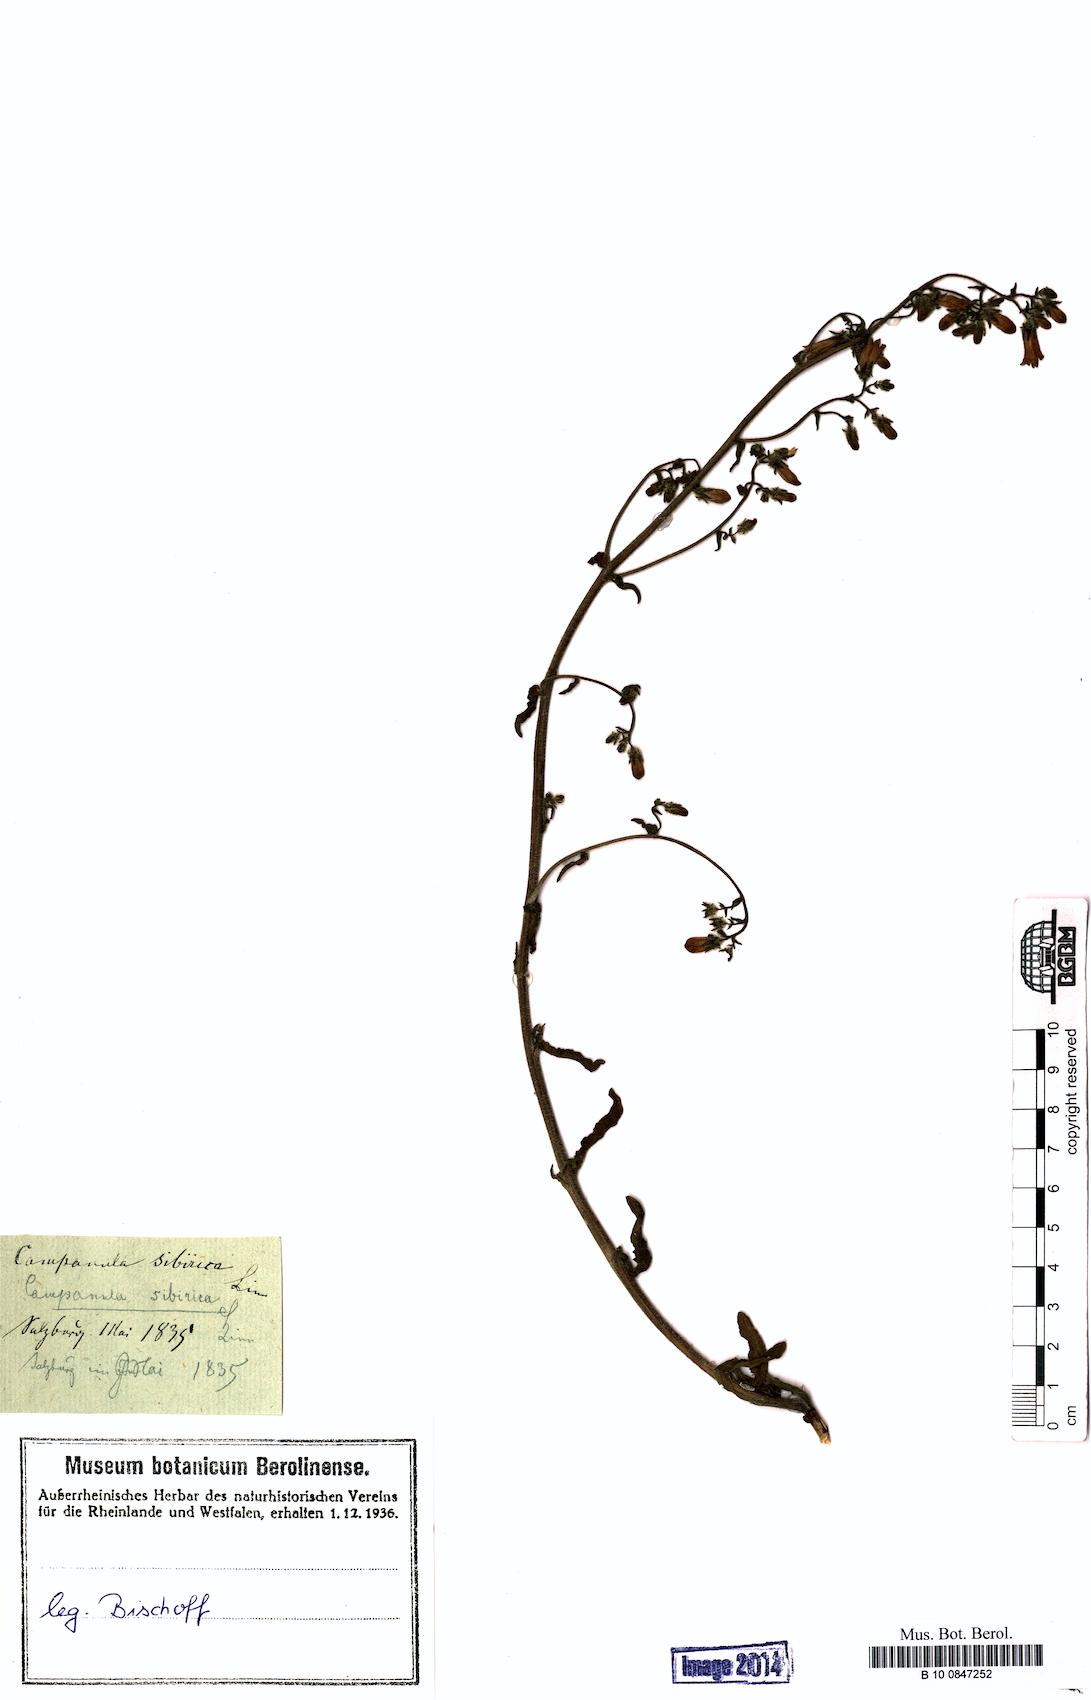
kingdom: Plantae
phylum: Tracheophyta
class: Magnoliopsida
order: Asterales
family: Campanulaceae
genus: Campanula
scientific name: Campanula sibirica
